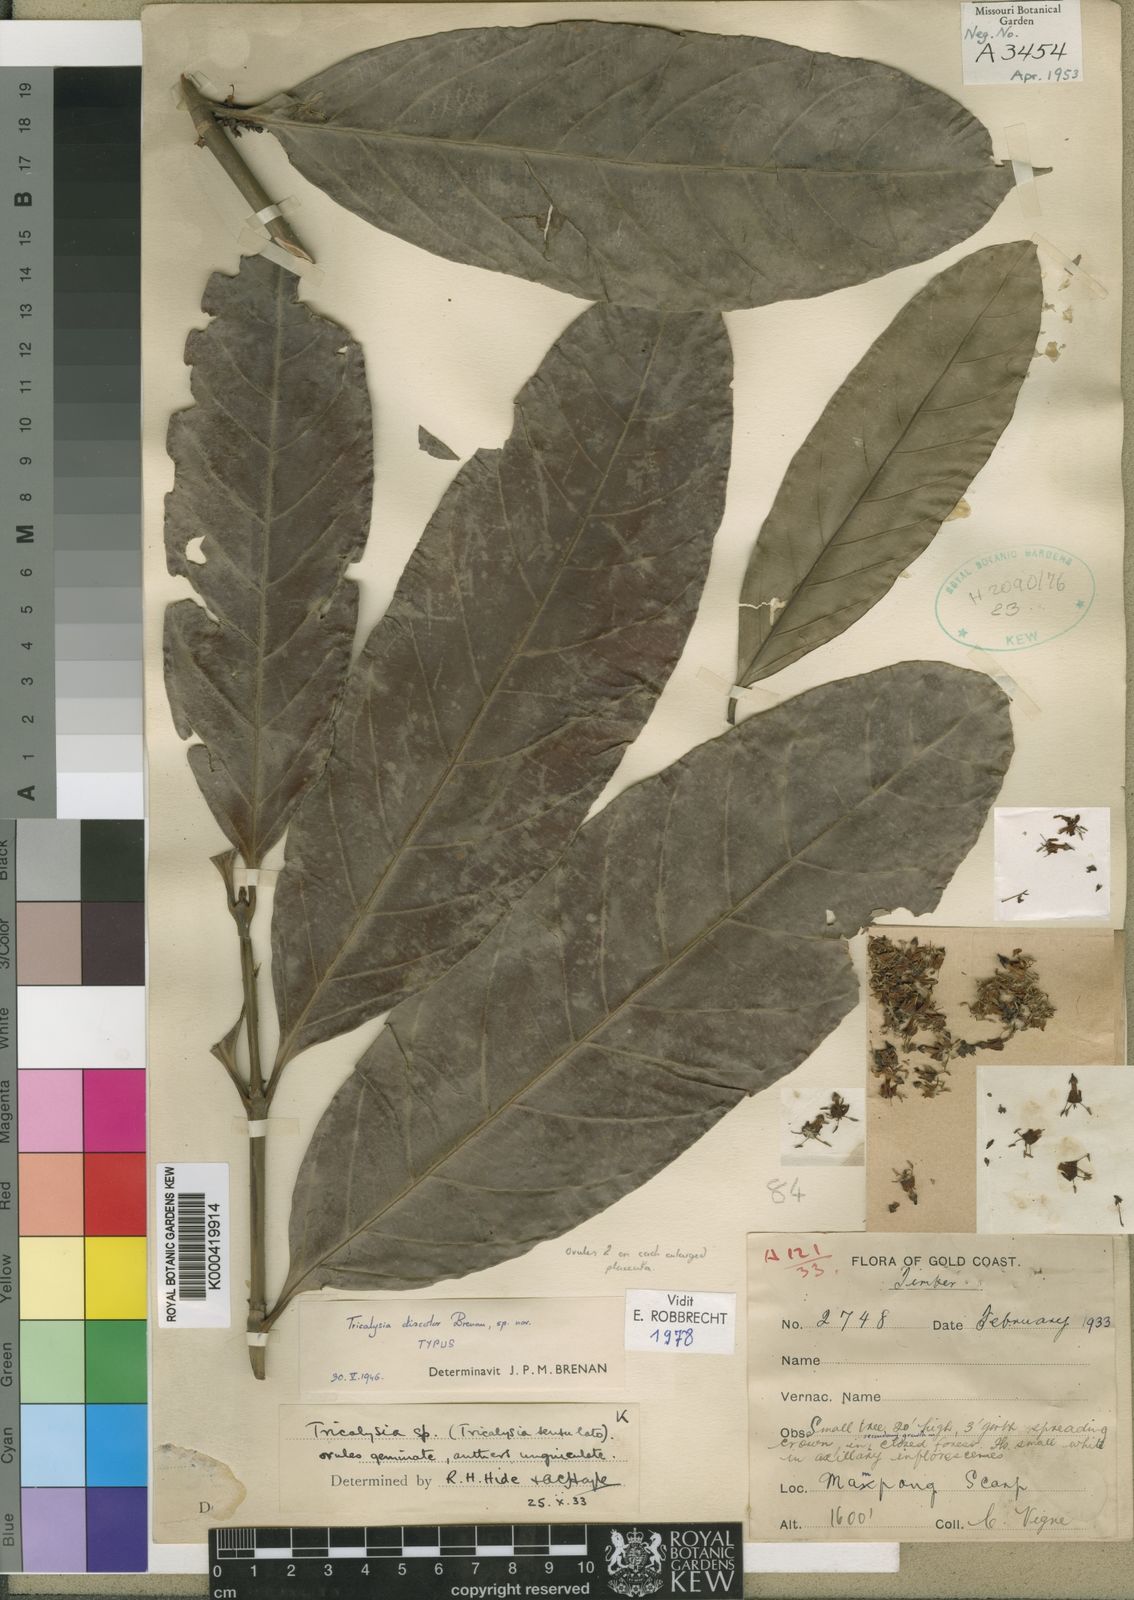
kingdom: Plantae
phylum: Tracheophyta
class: Magnoliopsida
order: Gentianales
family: Rubiaceae
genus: Empogona
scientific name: Empogona discolor
